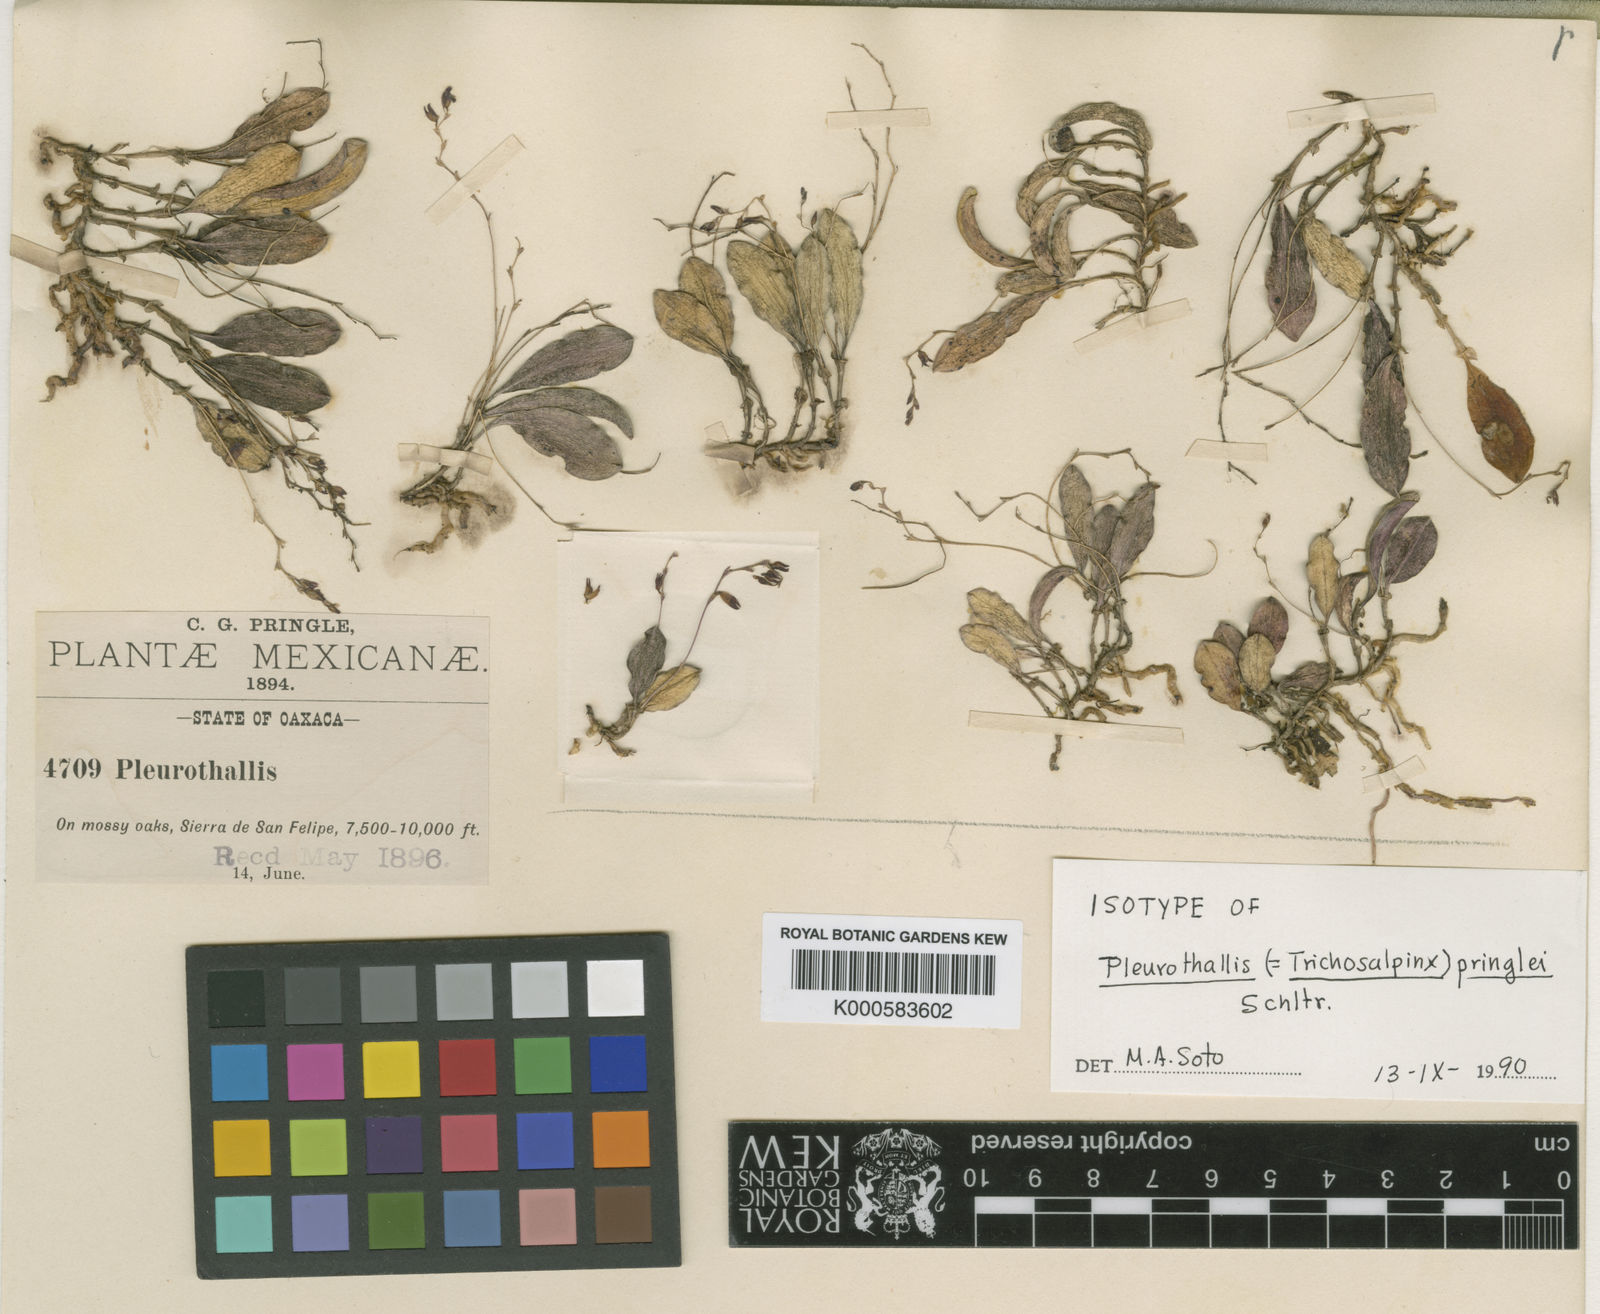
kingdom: Plantae
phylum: Tracheophyta
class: Liliopsida
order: Asparagales
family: Orchidaceae
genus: Trichosalpinx
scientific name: Trichosalpinx pringlei
